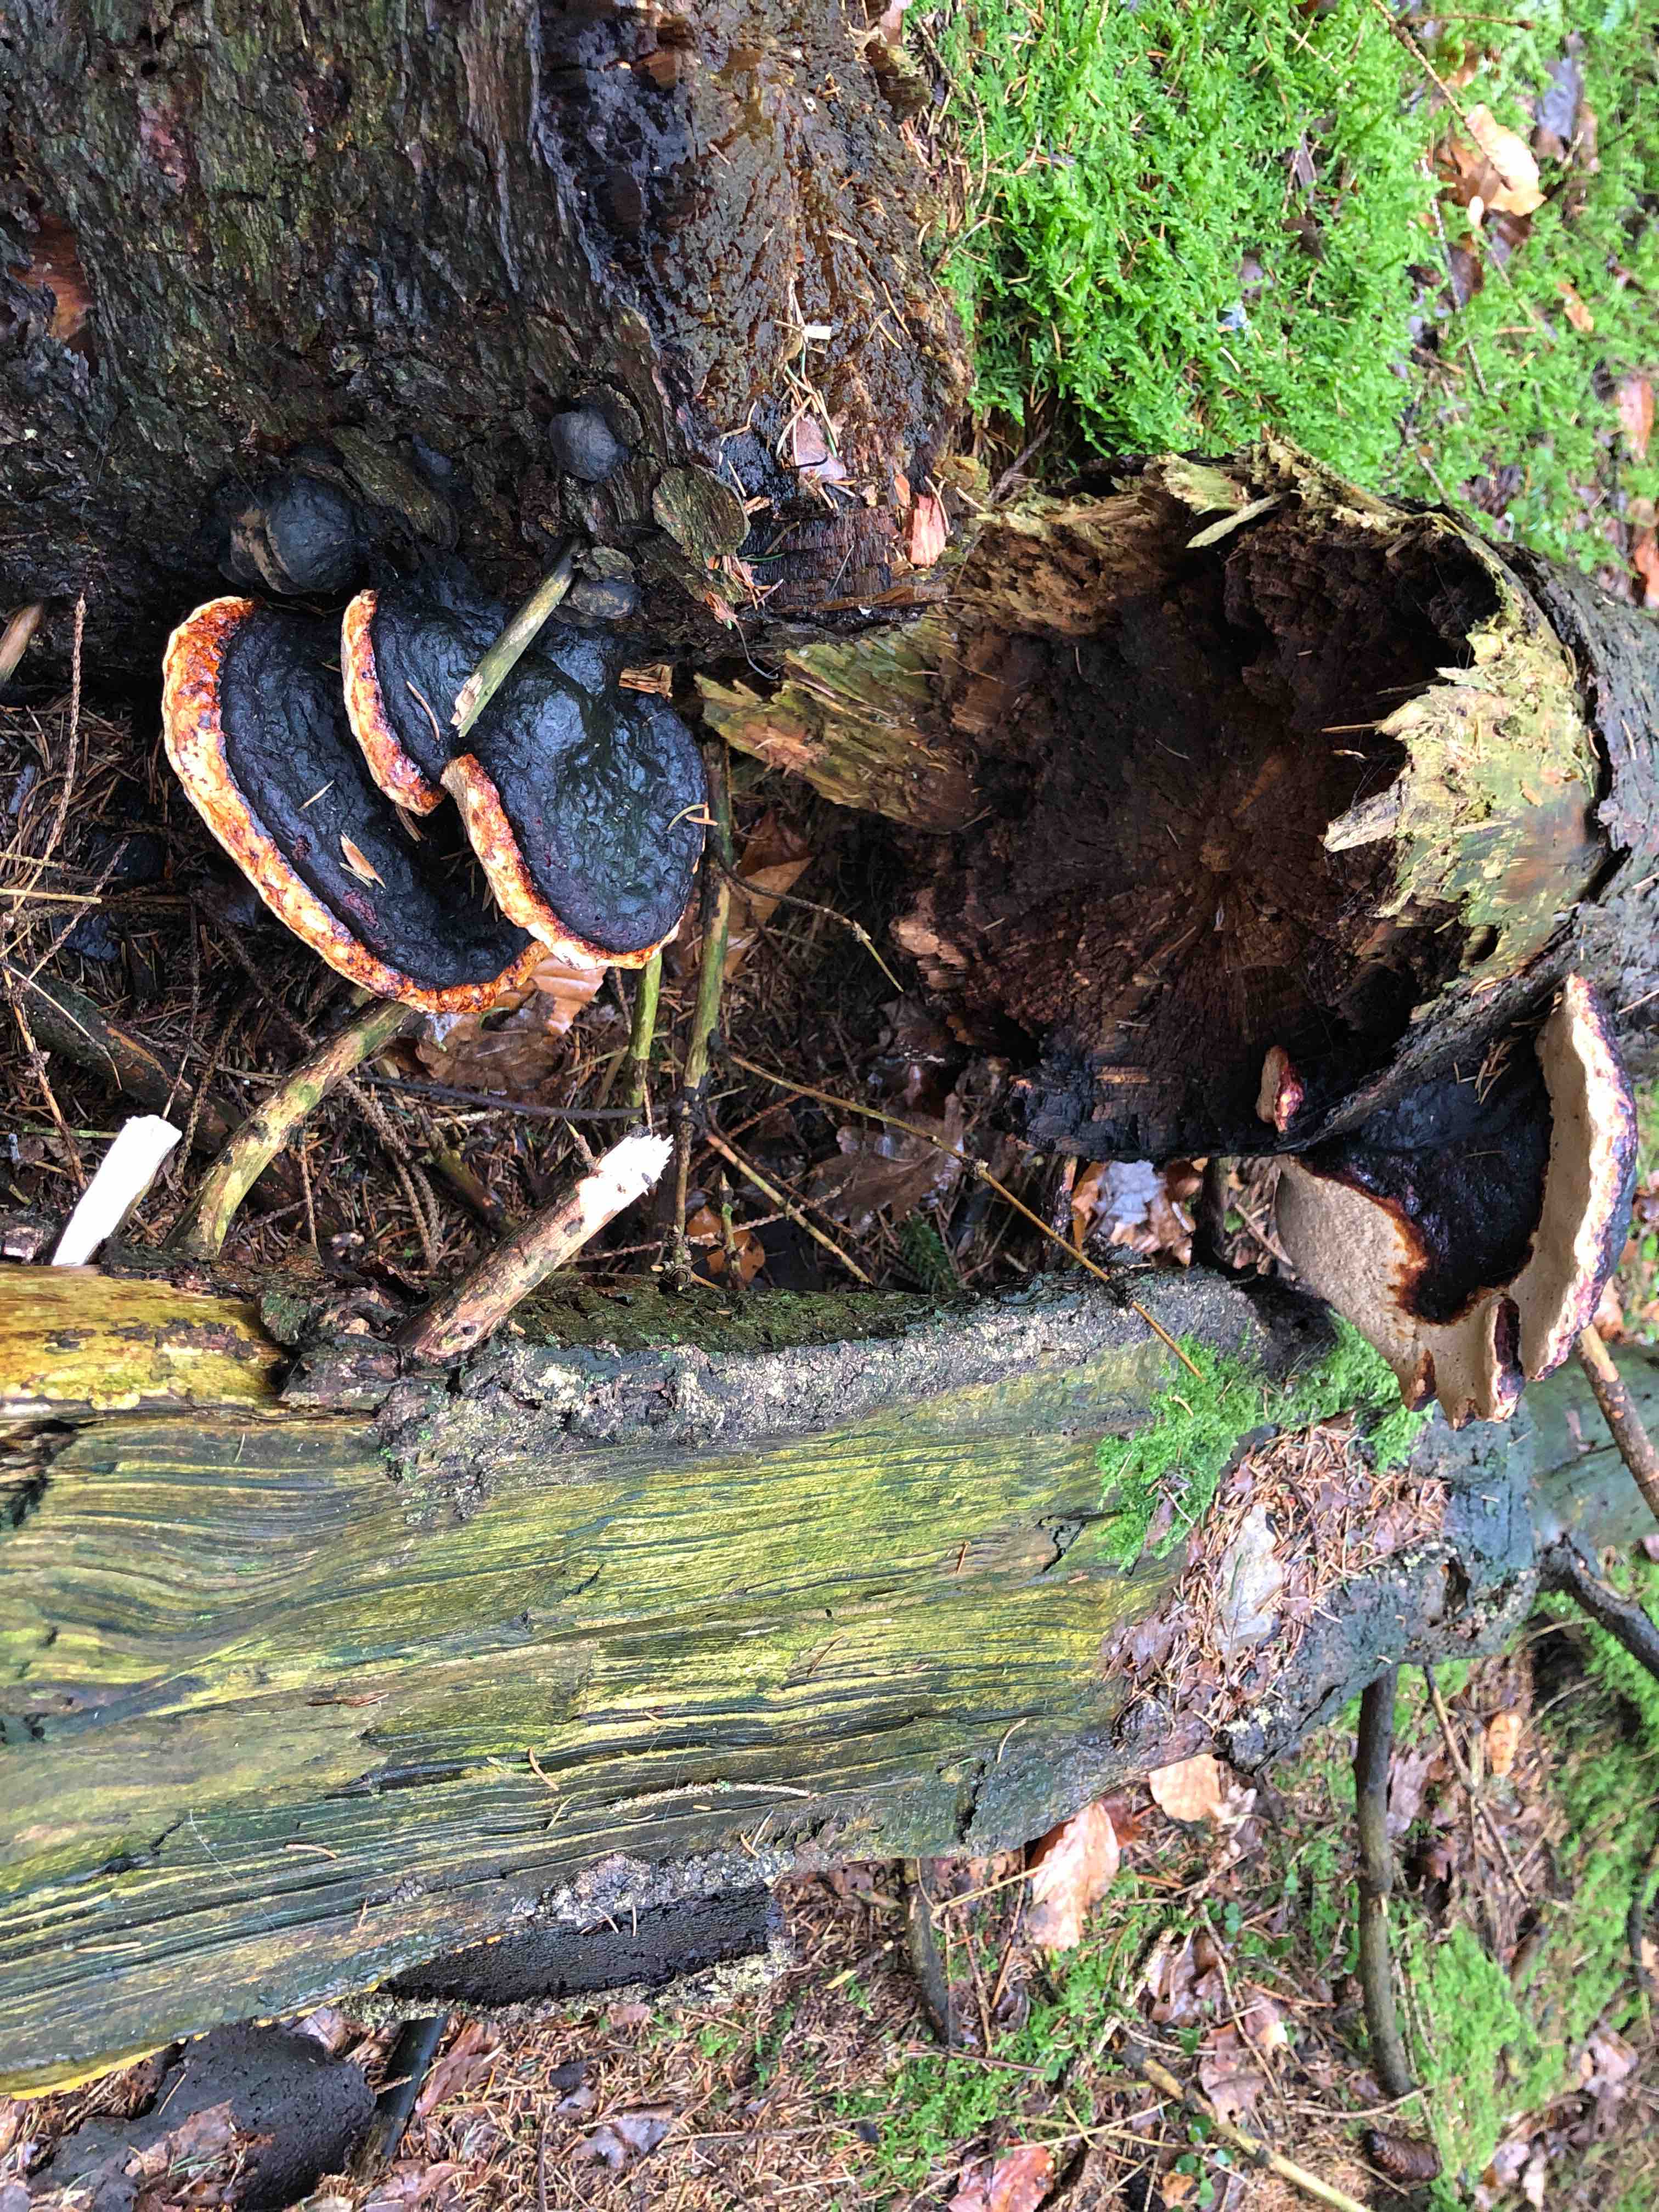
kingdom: Fungi
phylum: Basidiomycota
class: Agaricomycetes
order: Polyporales
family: Fomitopsidaceae
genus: Fomitopsis
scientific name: Fomitopsis pinicola
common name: randbæltet hovporesvamp
